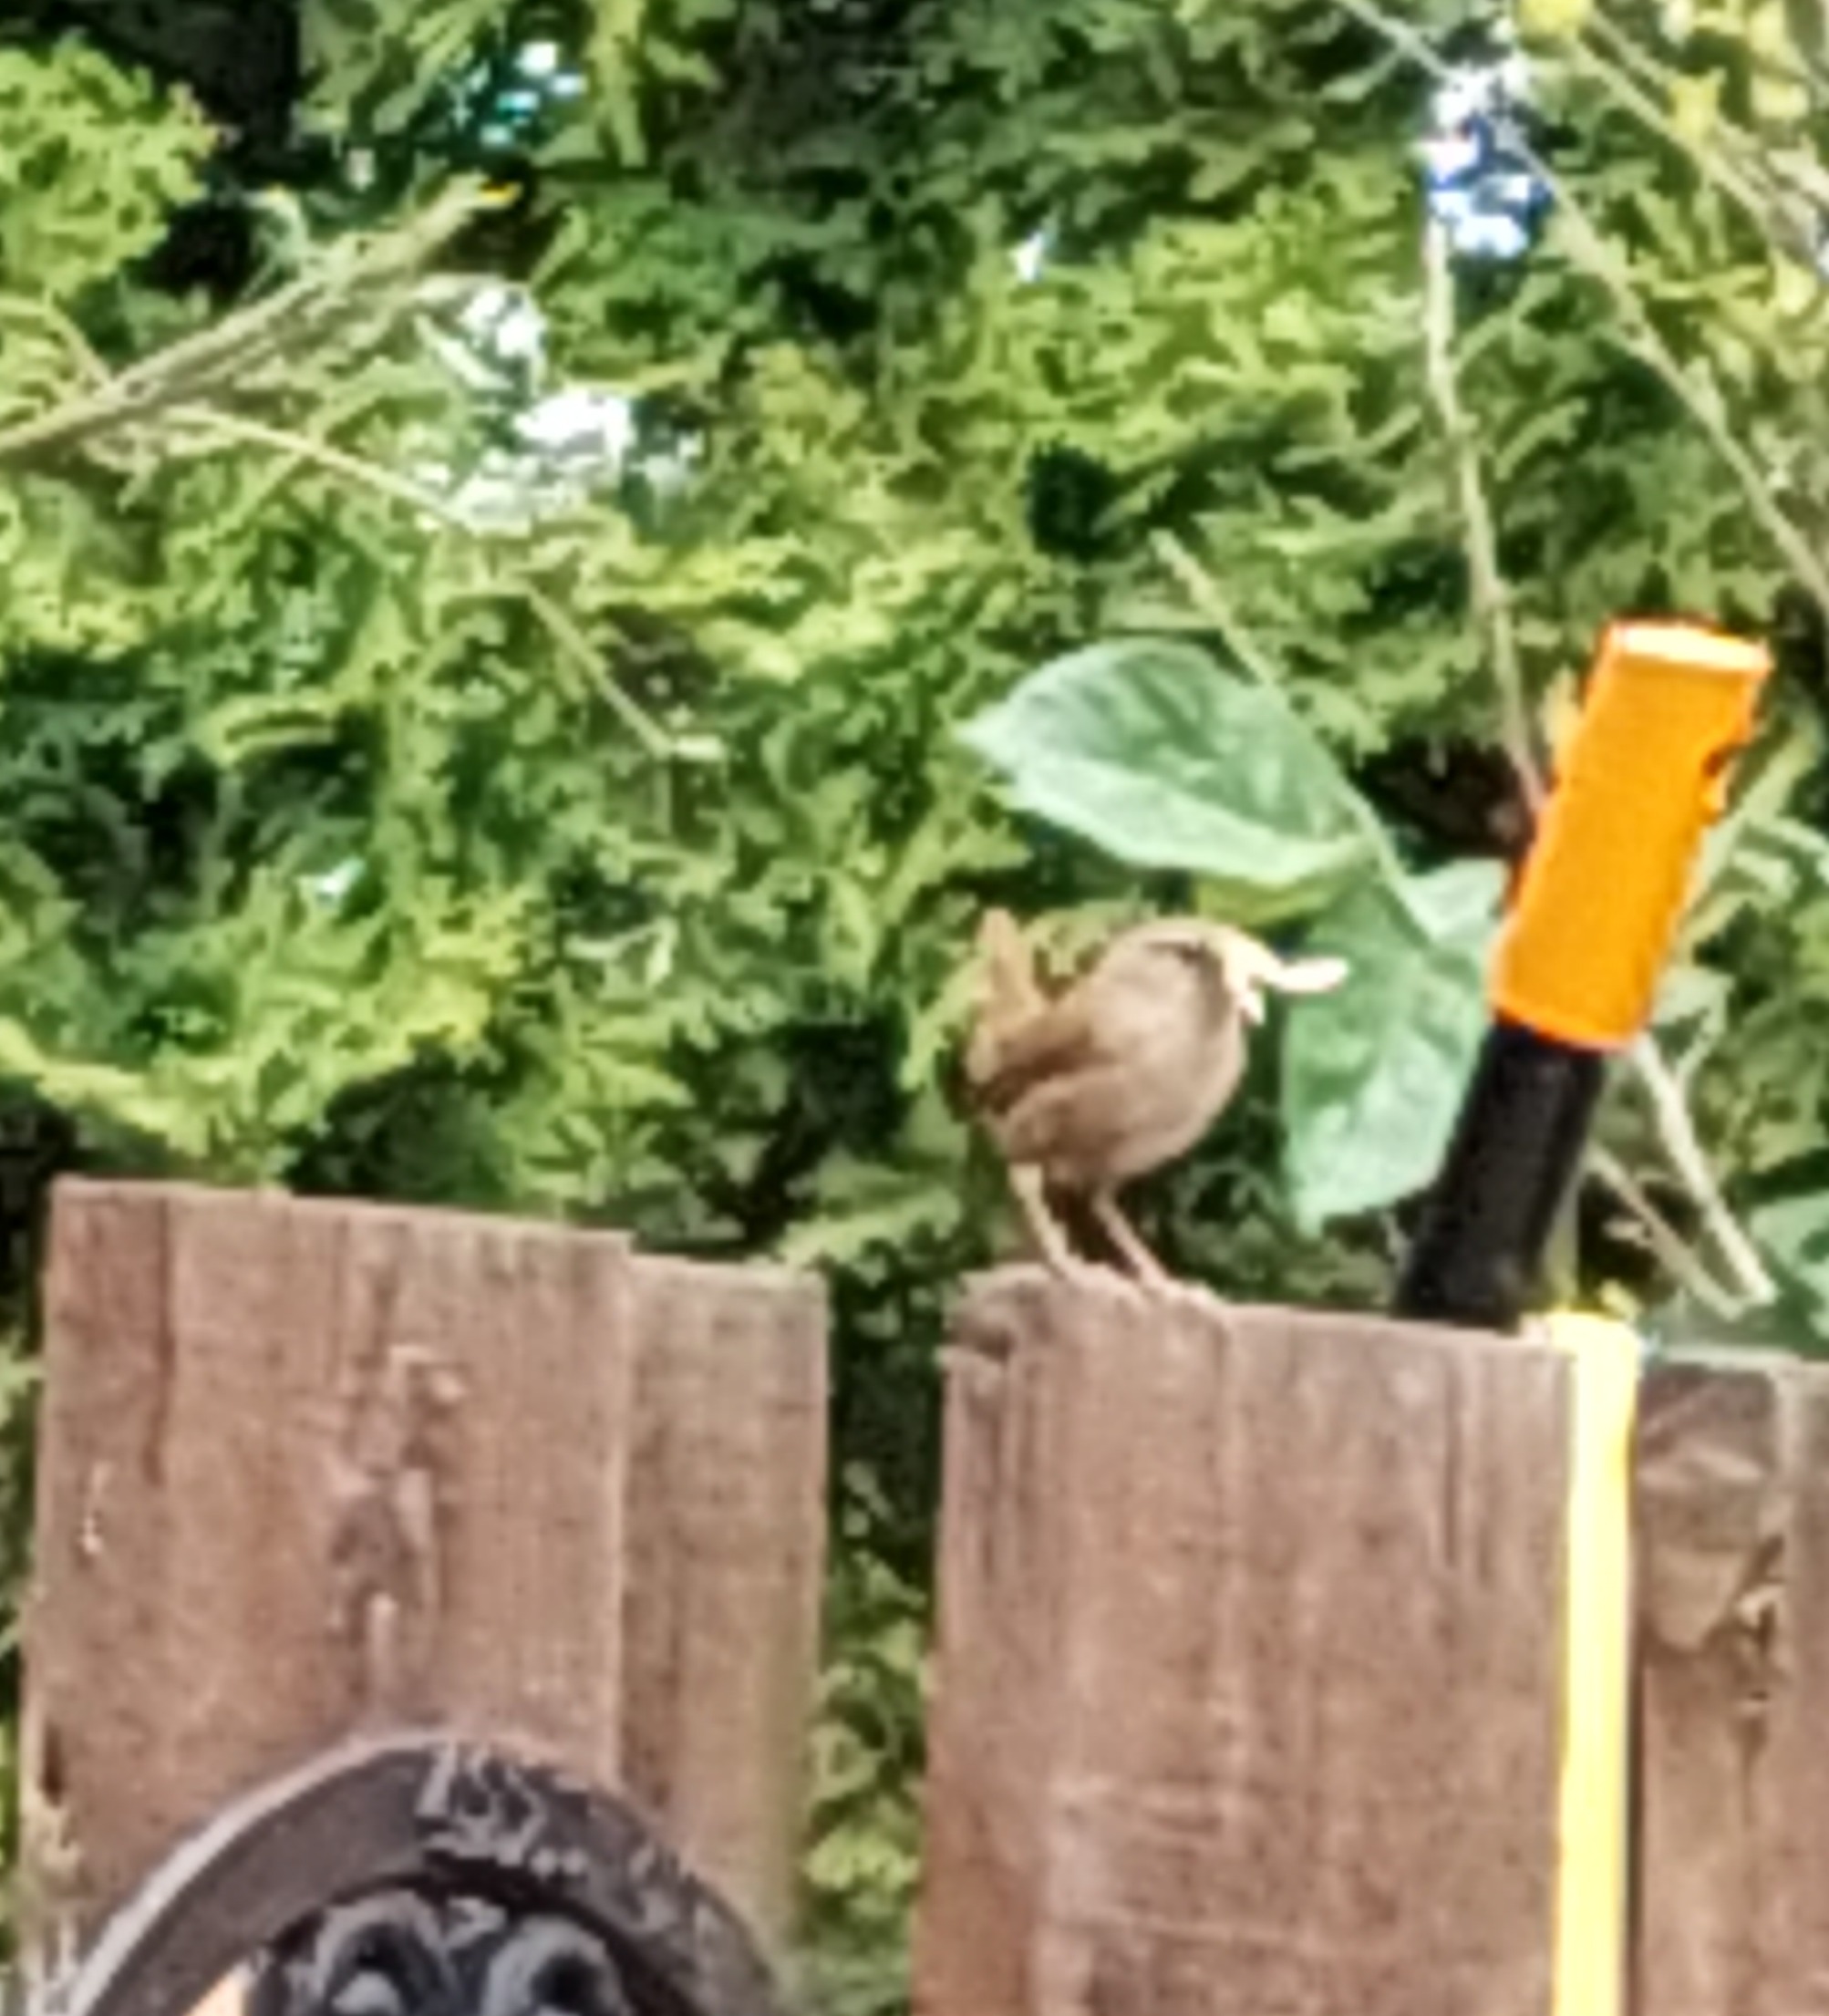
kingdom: Animalia
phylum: Chordata
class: Aves
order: Passeriformes
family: Troglodytidae
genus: Troglodytes
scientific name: Troglodytes troglodytes
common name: Gærdesmutte
